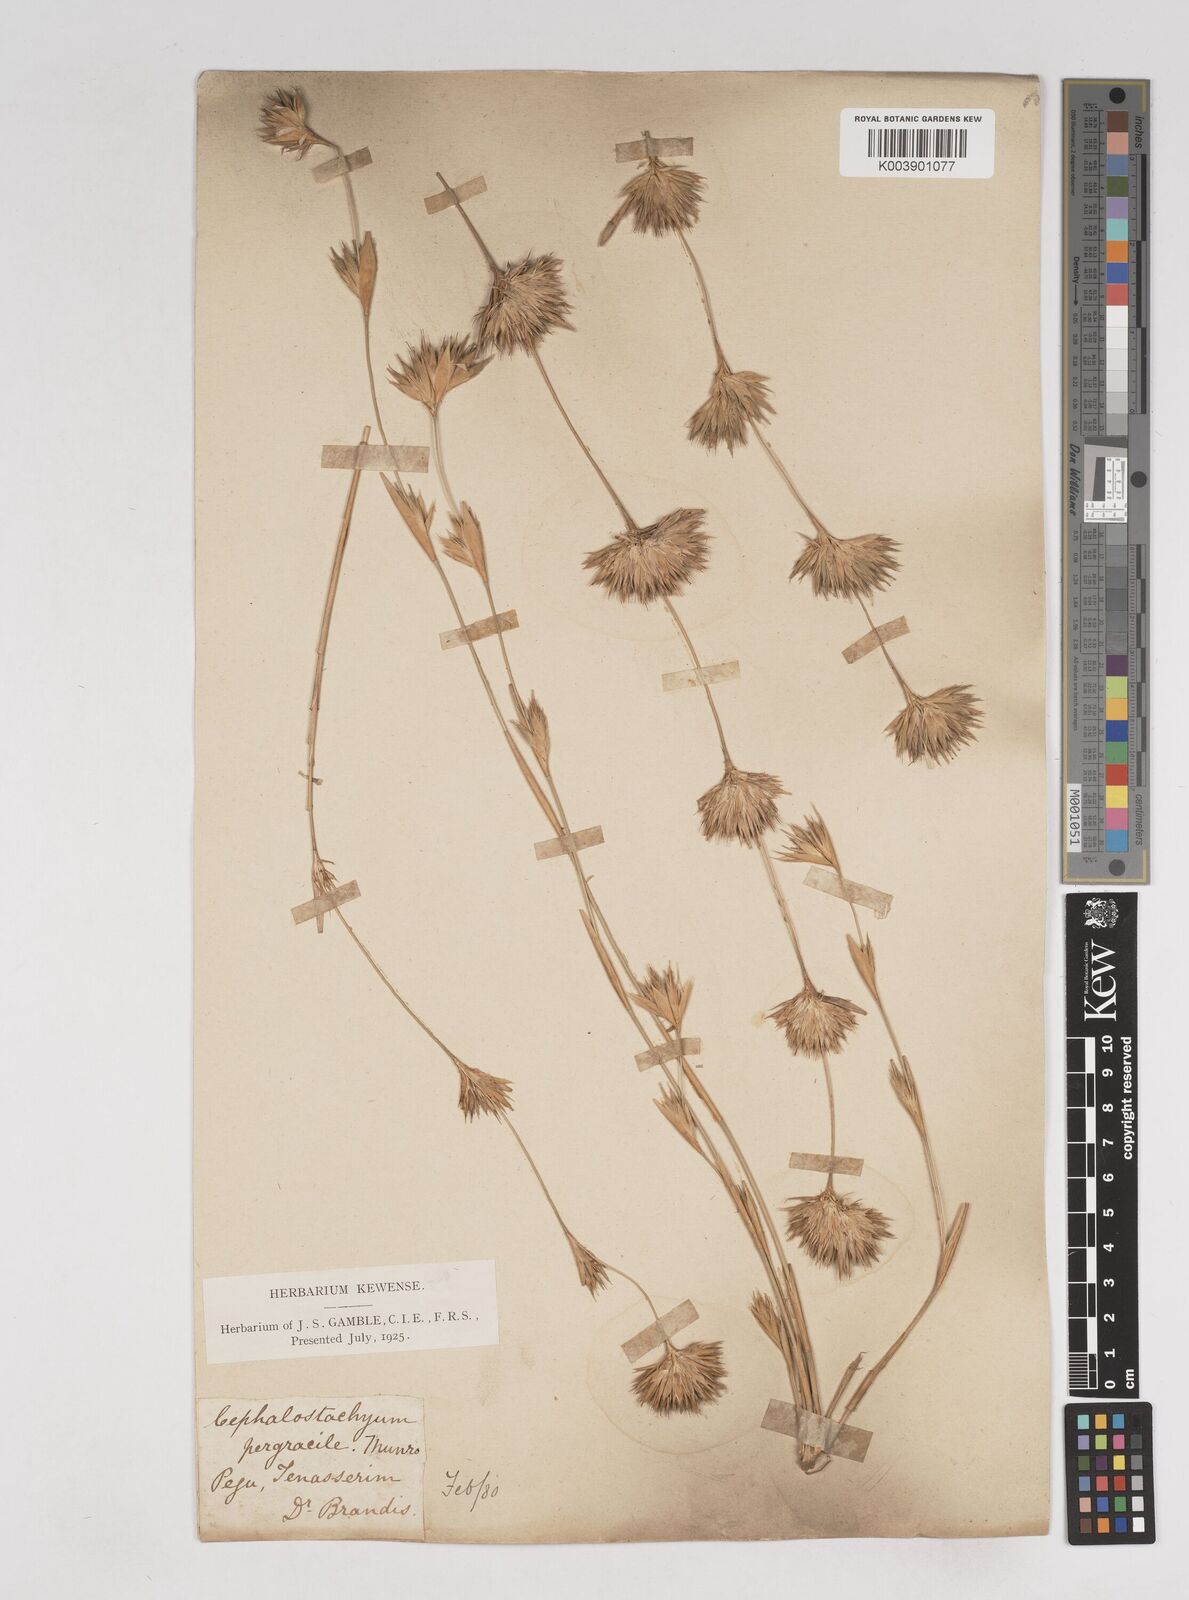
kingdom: Plantae
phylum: Tracheophyta
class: Liliopsida
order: Poales
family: Poaceae
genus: Schizostachyum
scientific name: Schizostachyum pergracile
